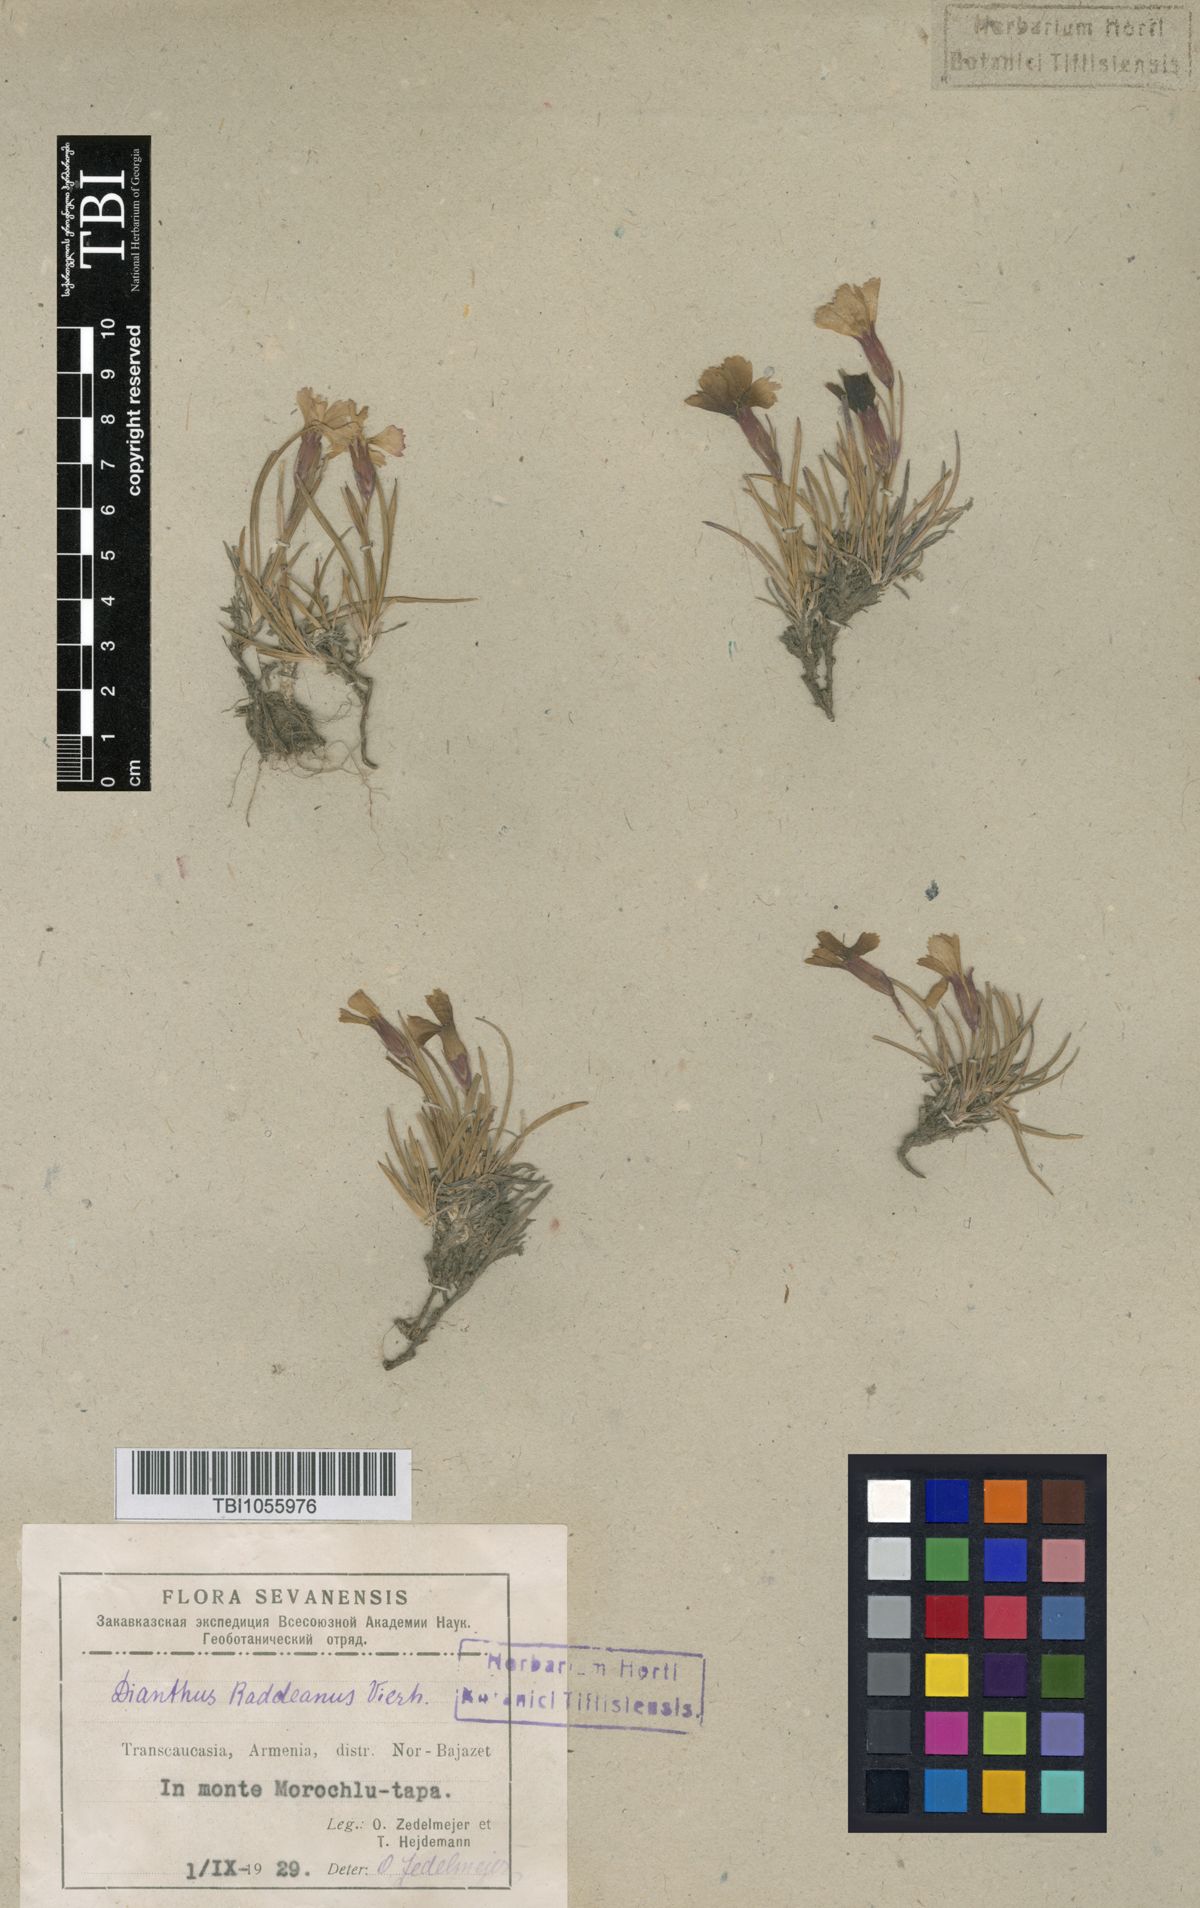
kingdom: Plantae
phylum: Tracheophyta
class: Magnoliopsida
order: Caryophyllales
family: Caryophyllaceae
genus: Dianthus
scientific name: Dianthus raddeanus
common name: Radde's pink
